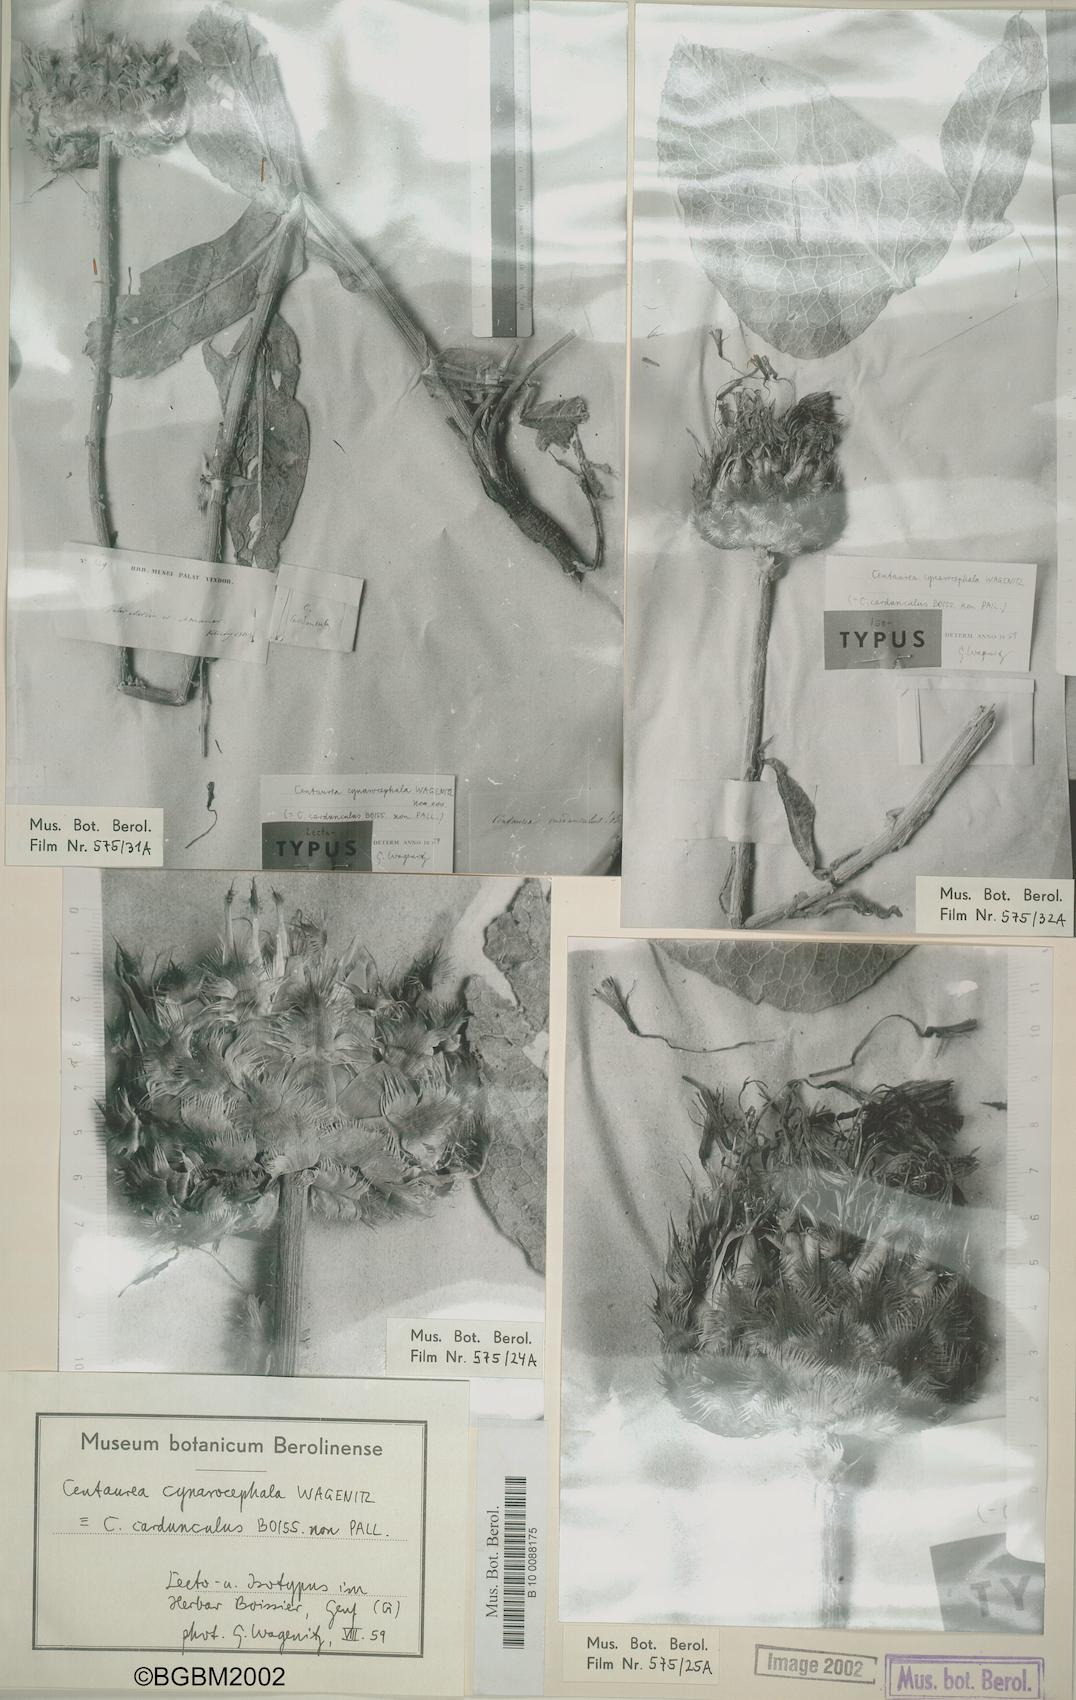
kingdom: Plantae
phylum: Tracheophyta
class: Magnoliopsida
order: Asterales
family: Asteraceae
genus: Centaurea
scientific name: Centaurea regia
